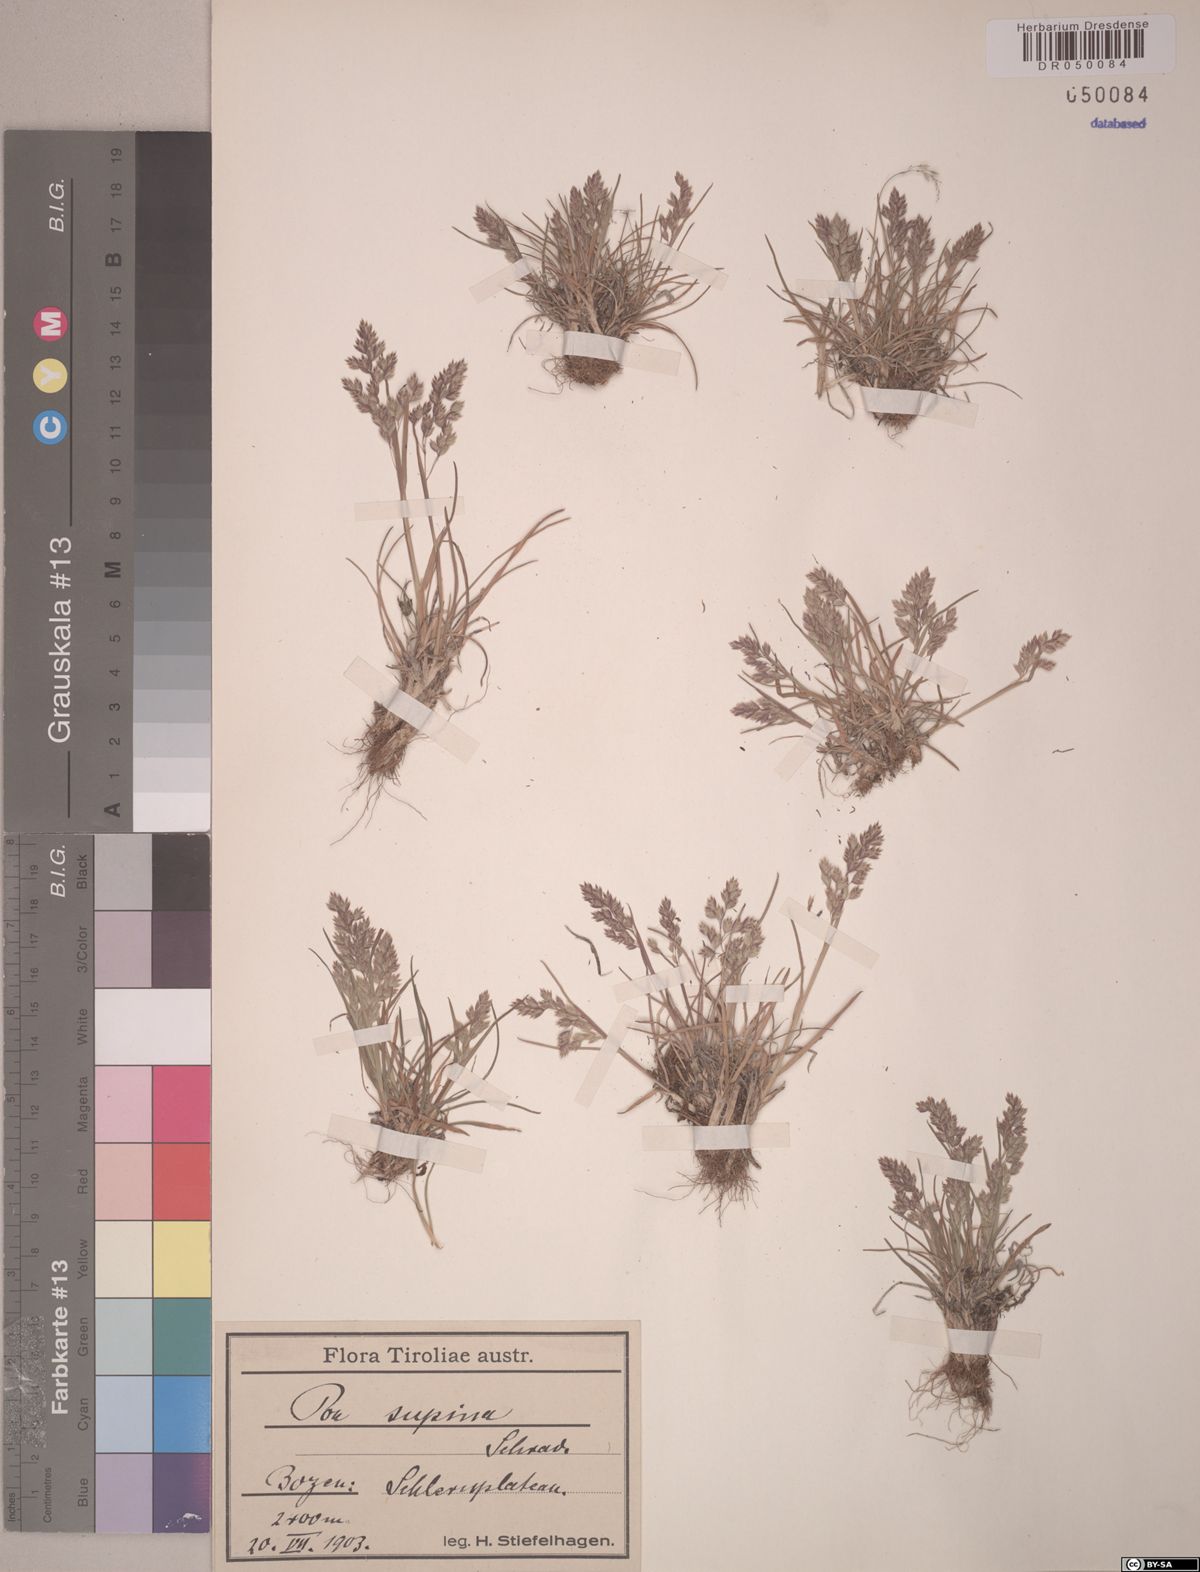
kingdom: Plantae
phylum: Tracheophyta
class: Liliopsida
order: Poales
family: Poaceae
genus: Poa
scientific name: Poa supina
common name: Supina bluegrass
